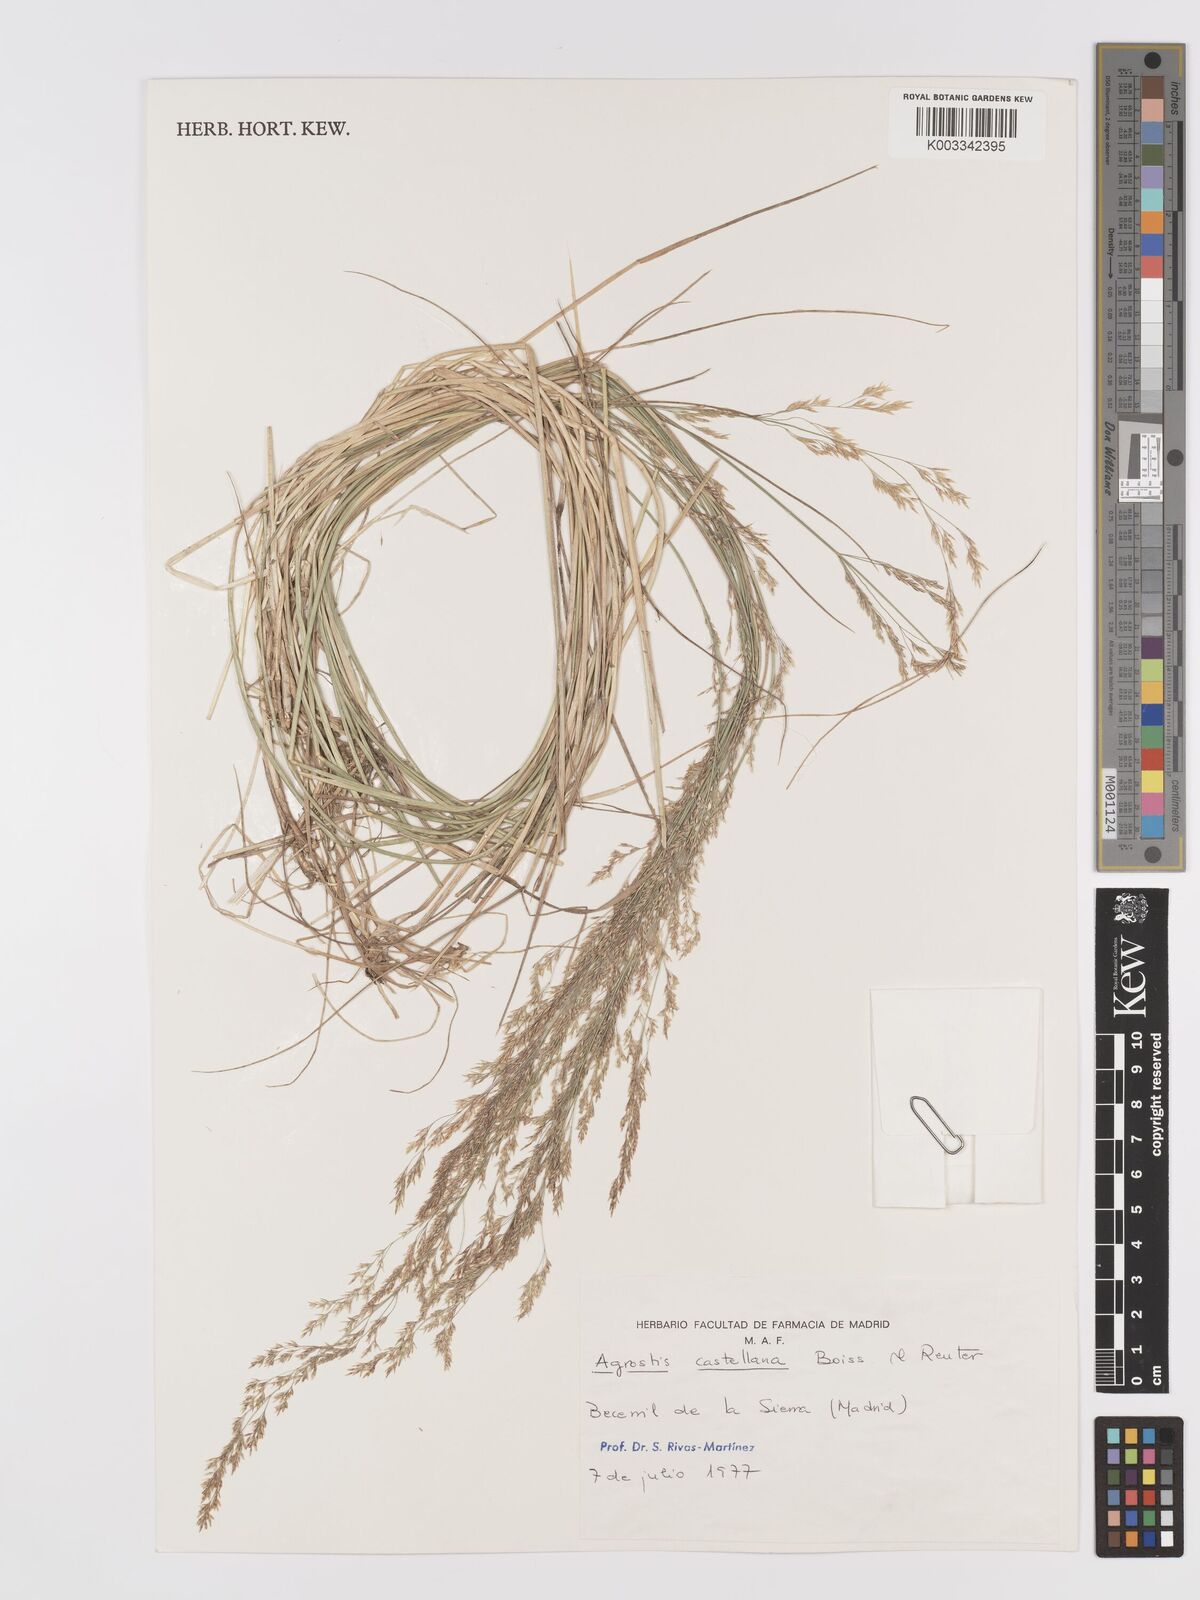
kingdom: Plantae
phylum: Tracheophyta
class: Liliopsida
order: Poales
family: Poaceae
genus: Agrostis
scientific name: Agrostis castellana
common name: Highland bent
